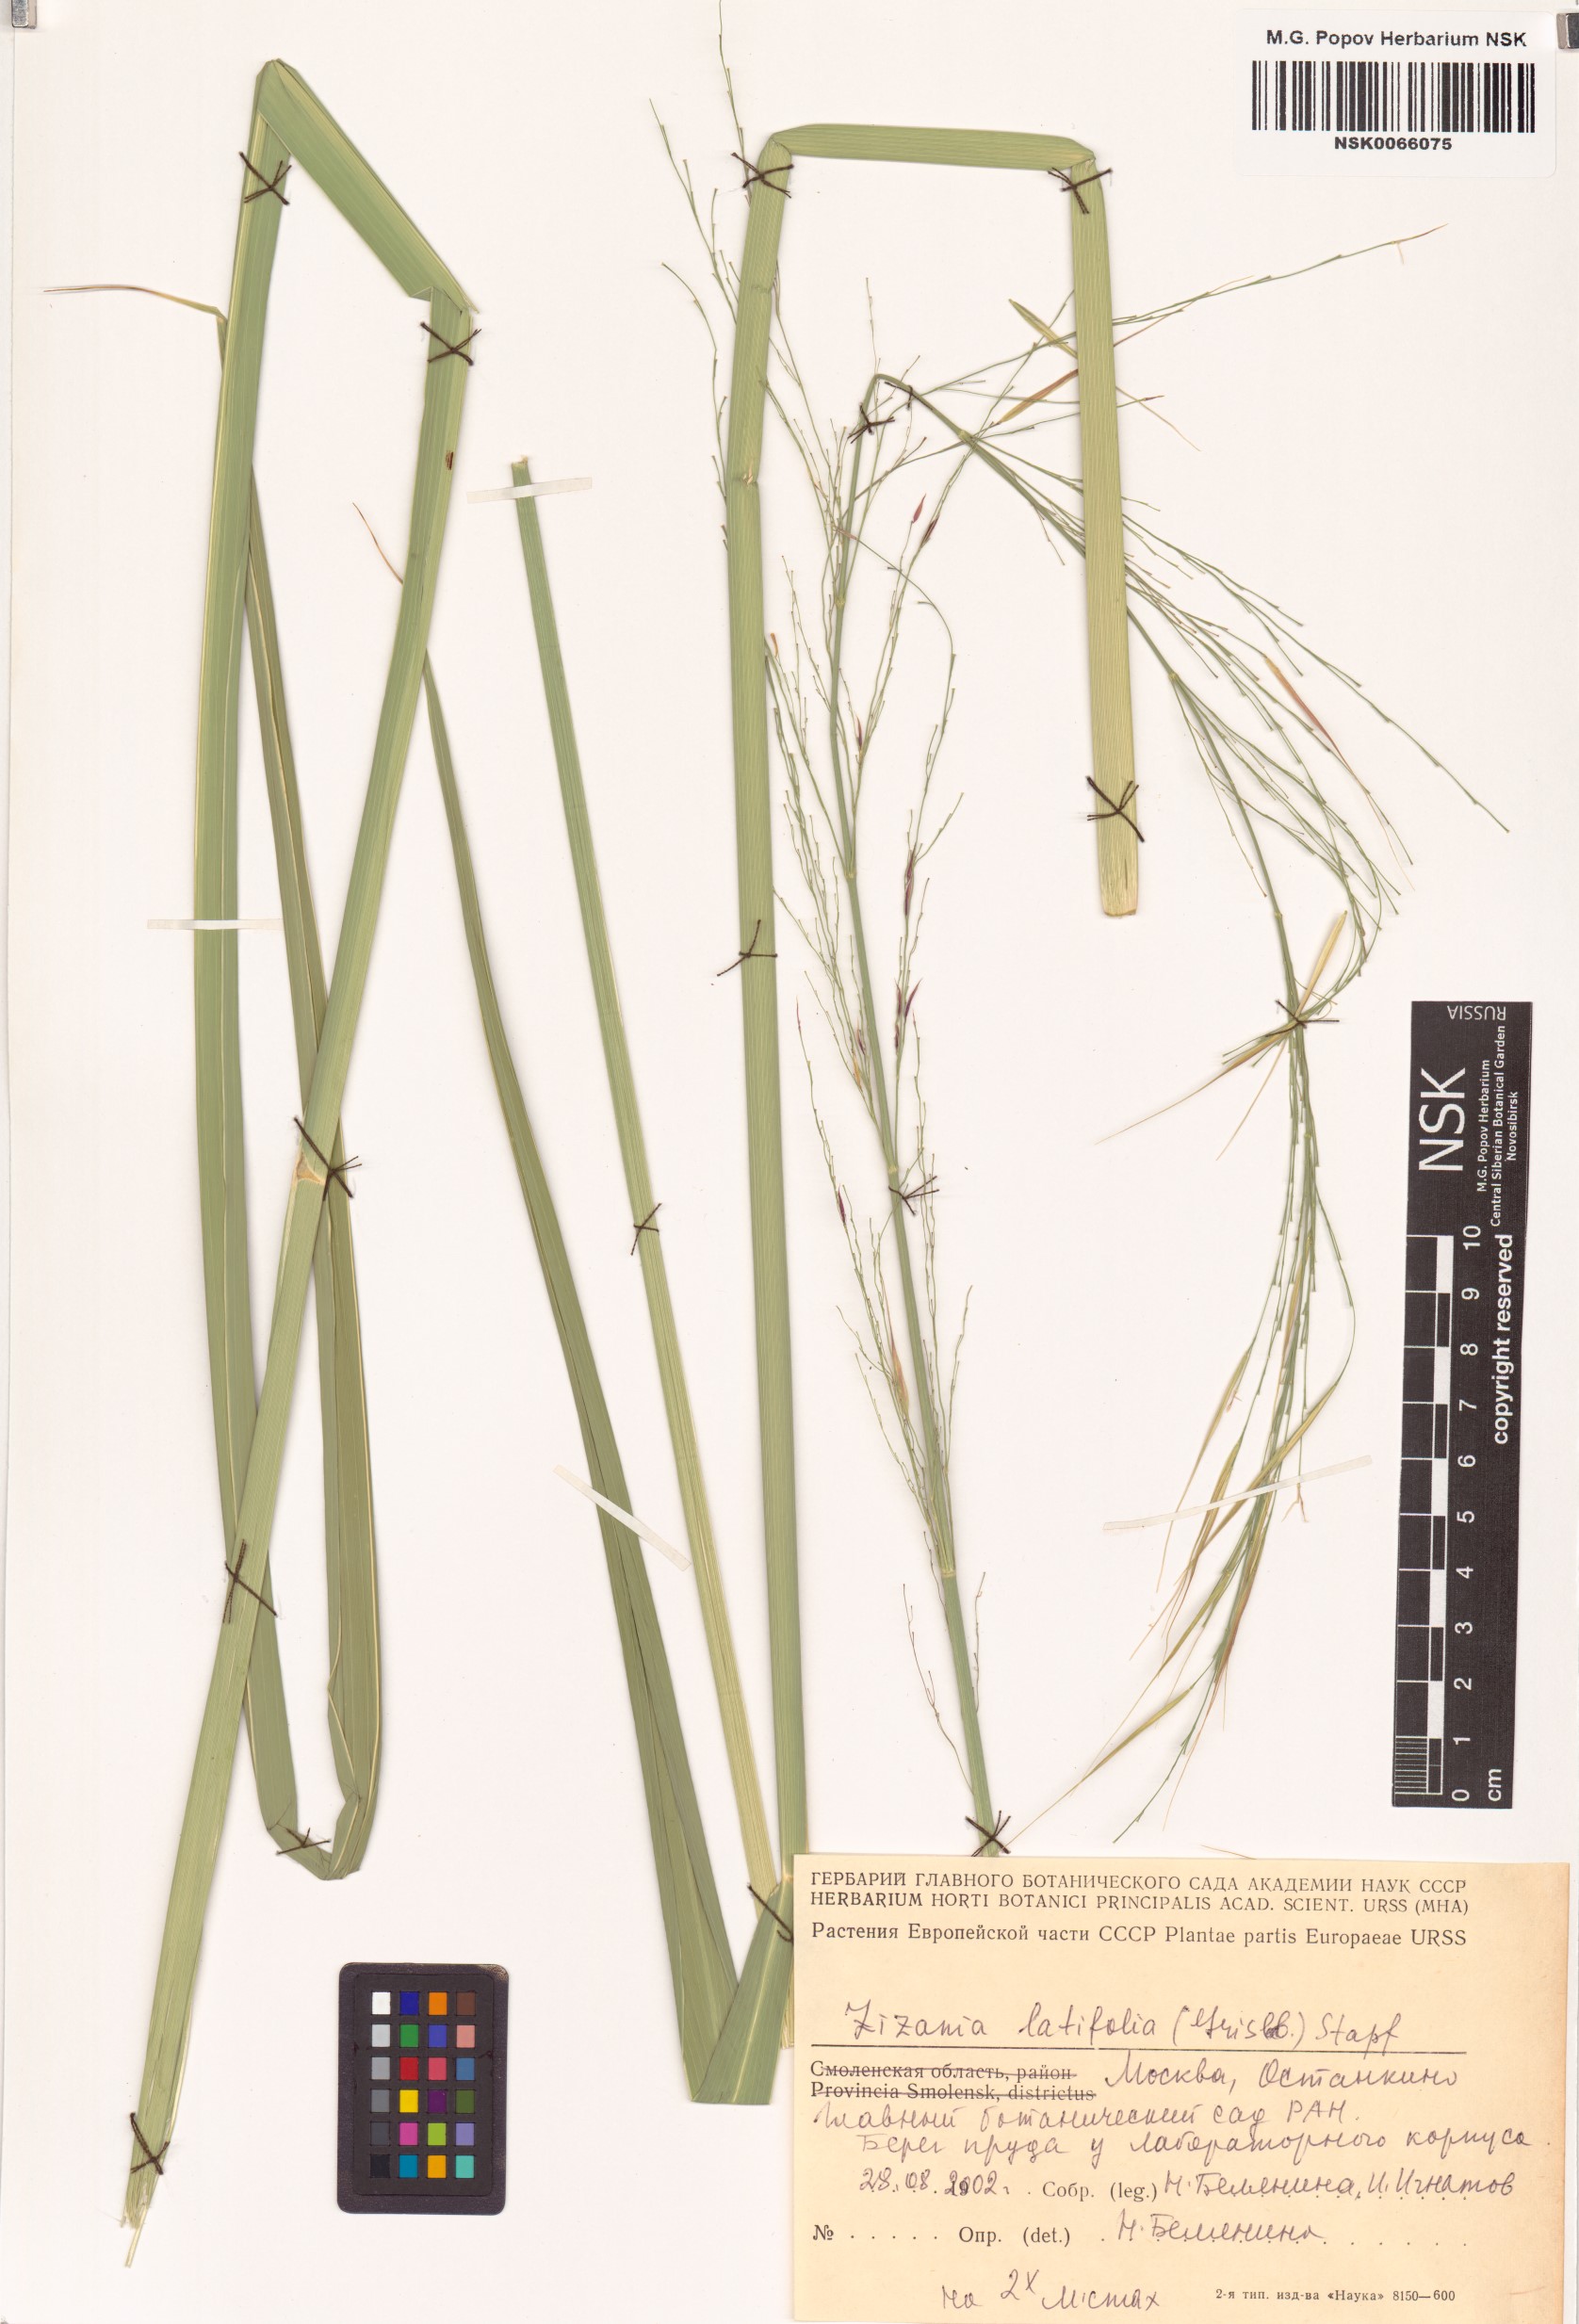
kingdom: Plantae
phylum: Tracheophyta
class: Liliopsida
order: Poales
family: Poaceae
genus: Zizania
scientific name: Zizania latifolia
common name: Manchurian wildrice
